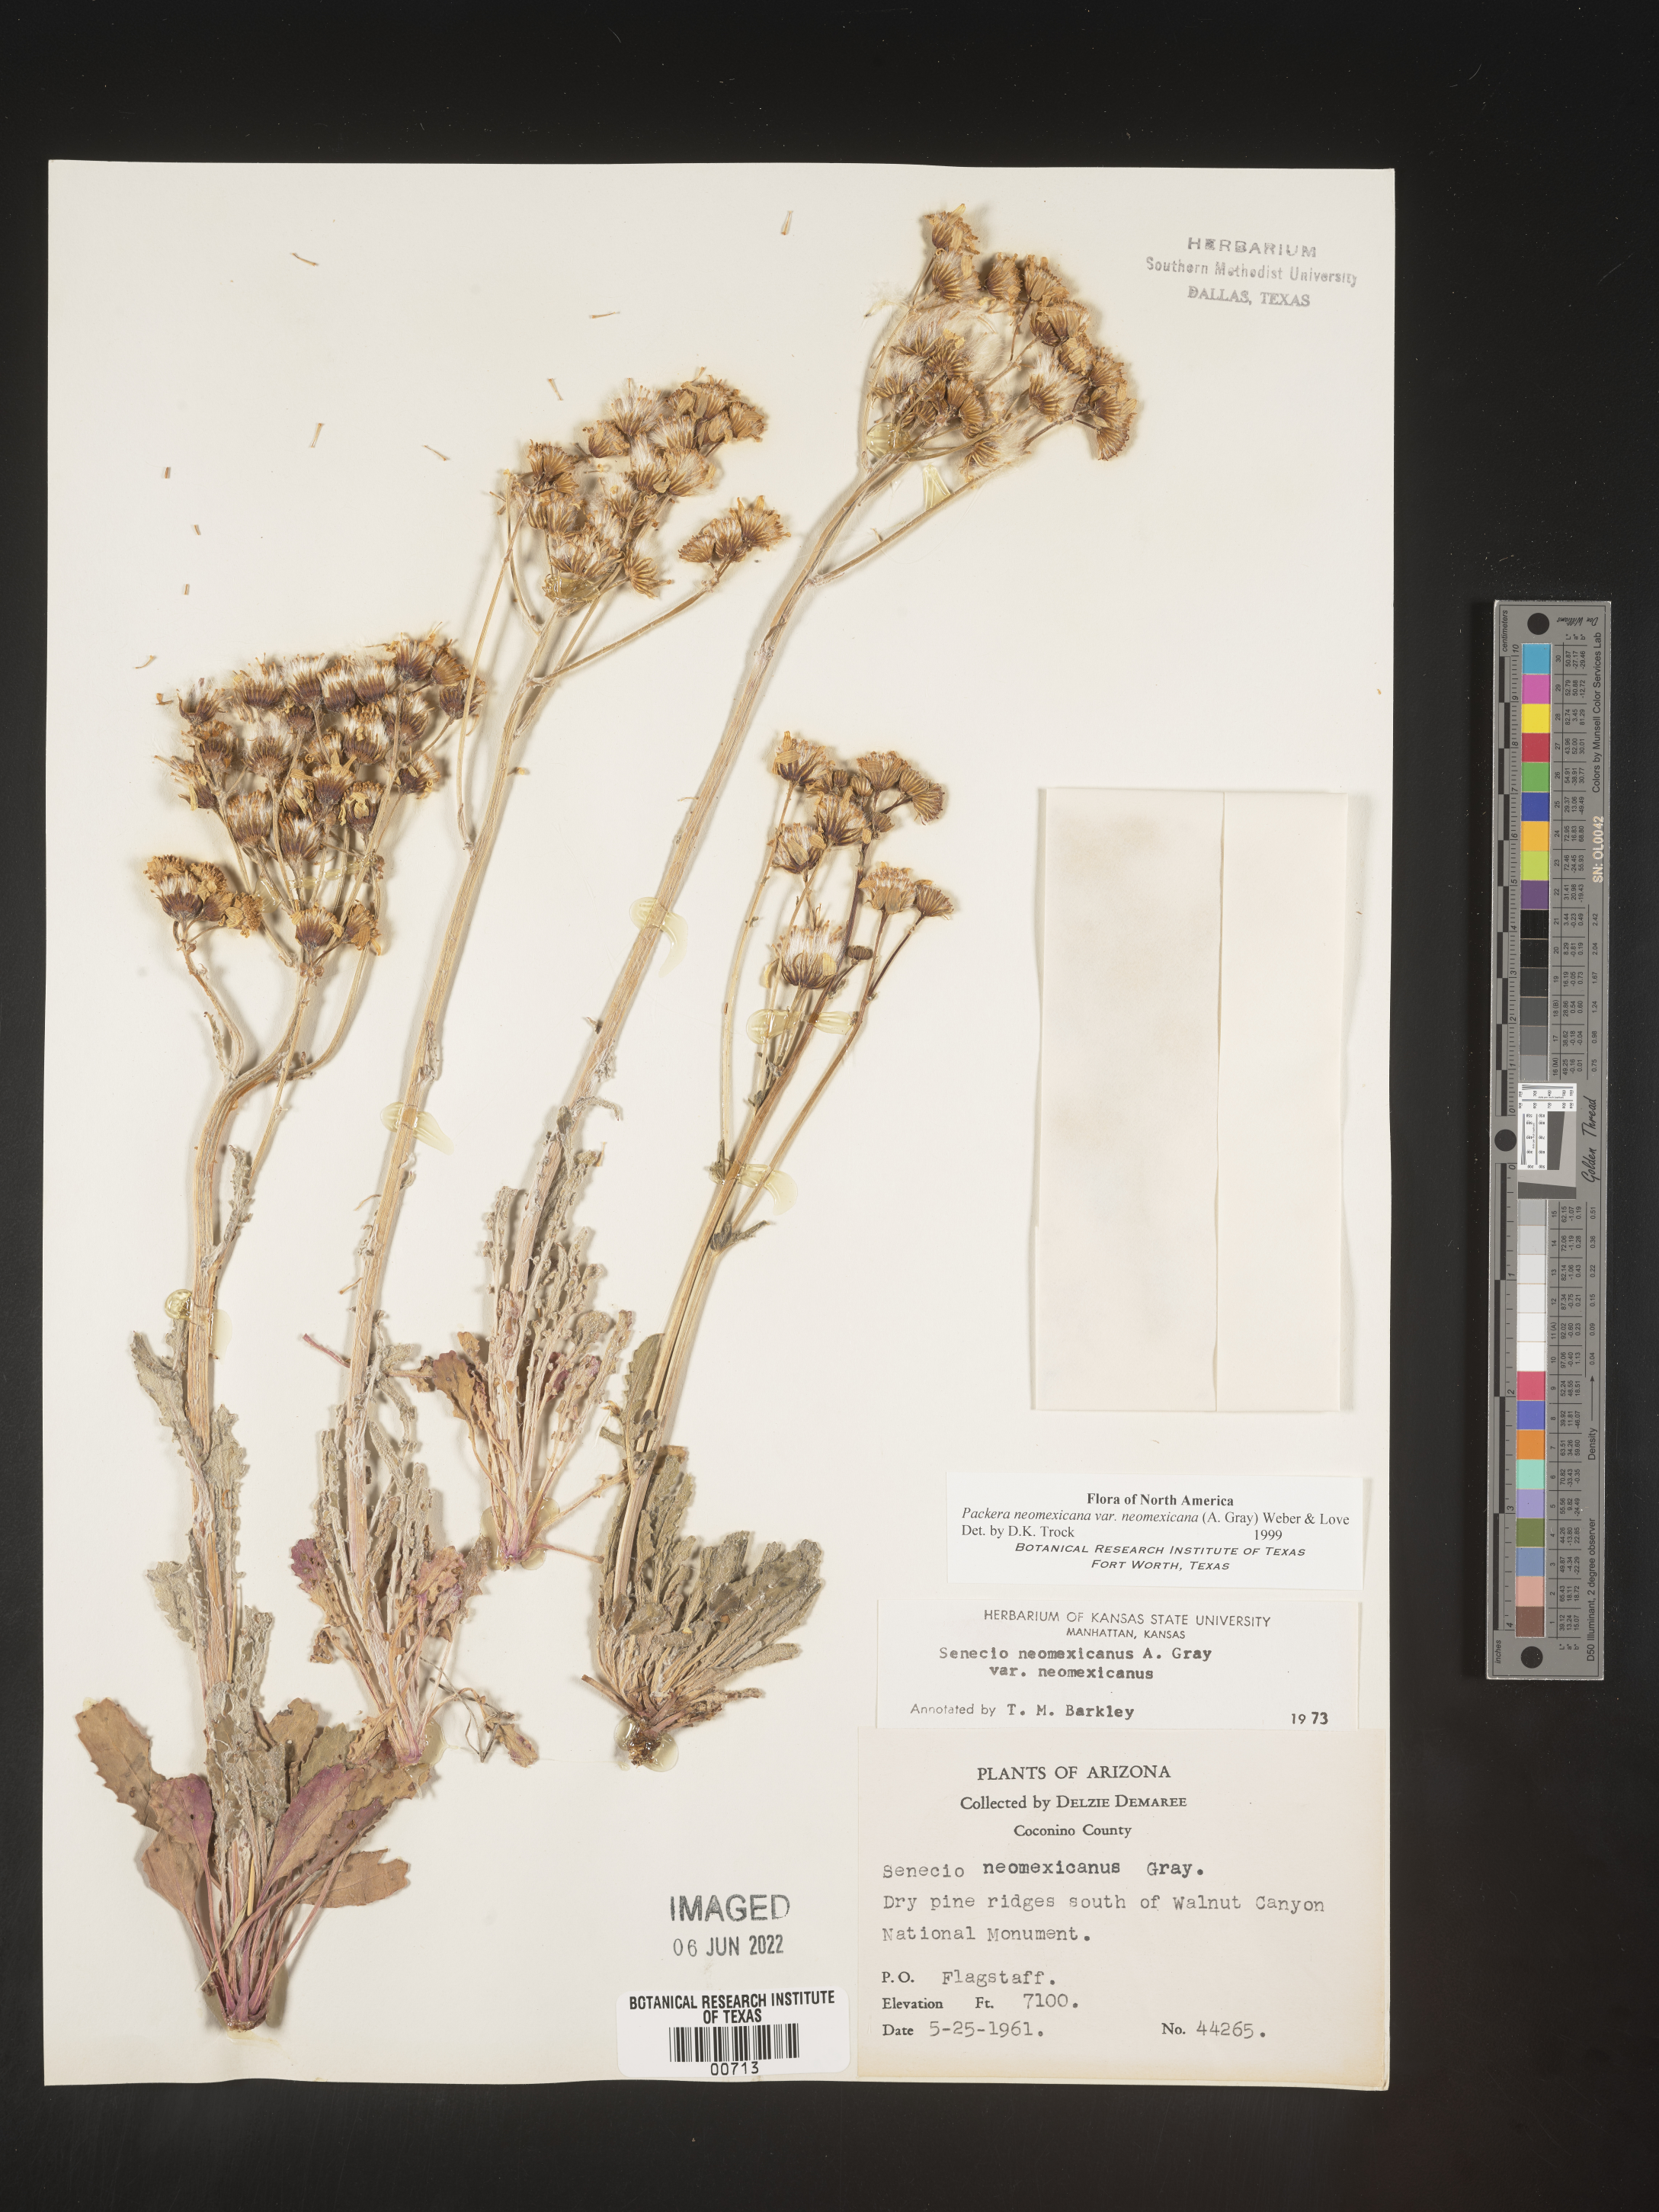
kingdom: Plantae
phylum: Tracheophyta
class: Magnoliopsida
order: Asterales
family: Asteraceae
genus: Packera
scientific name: Packera neomexicana
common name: New mexico butterweed
